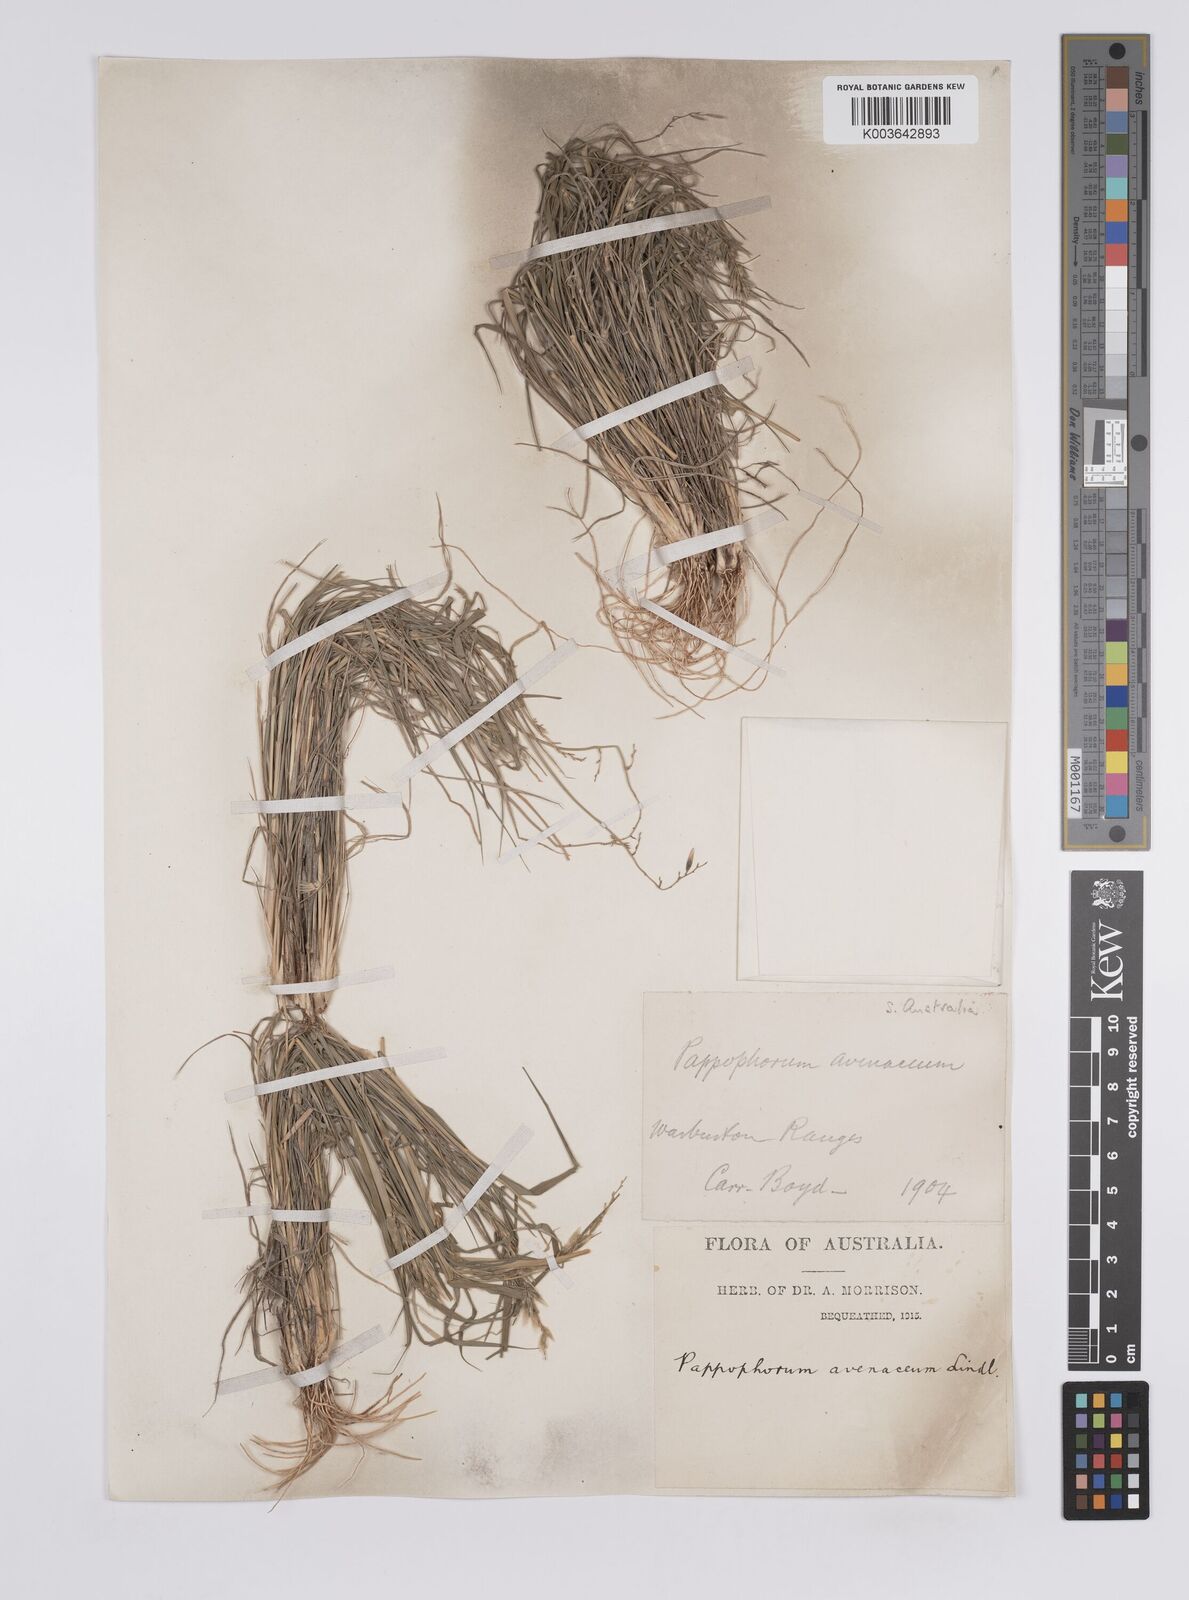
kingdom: Plantae
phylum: Tracheophyta
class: Liliopsida
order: Poales
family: Poaceae
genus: Enneapogon
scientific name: Enneapogon avenaceus
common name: Hairy oat grass
